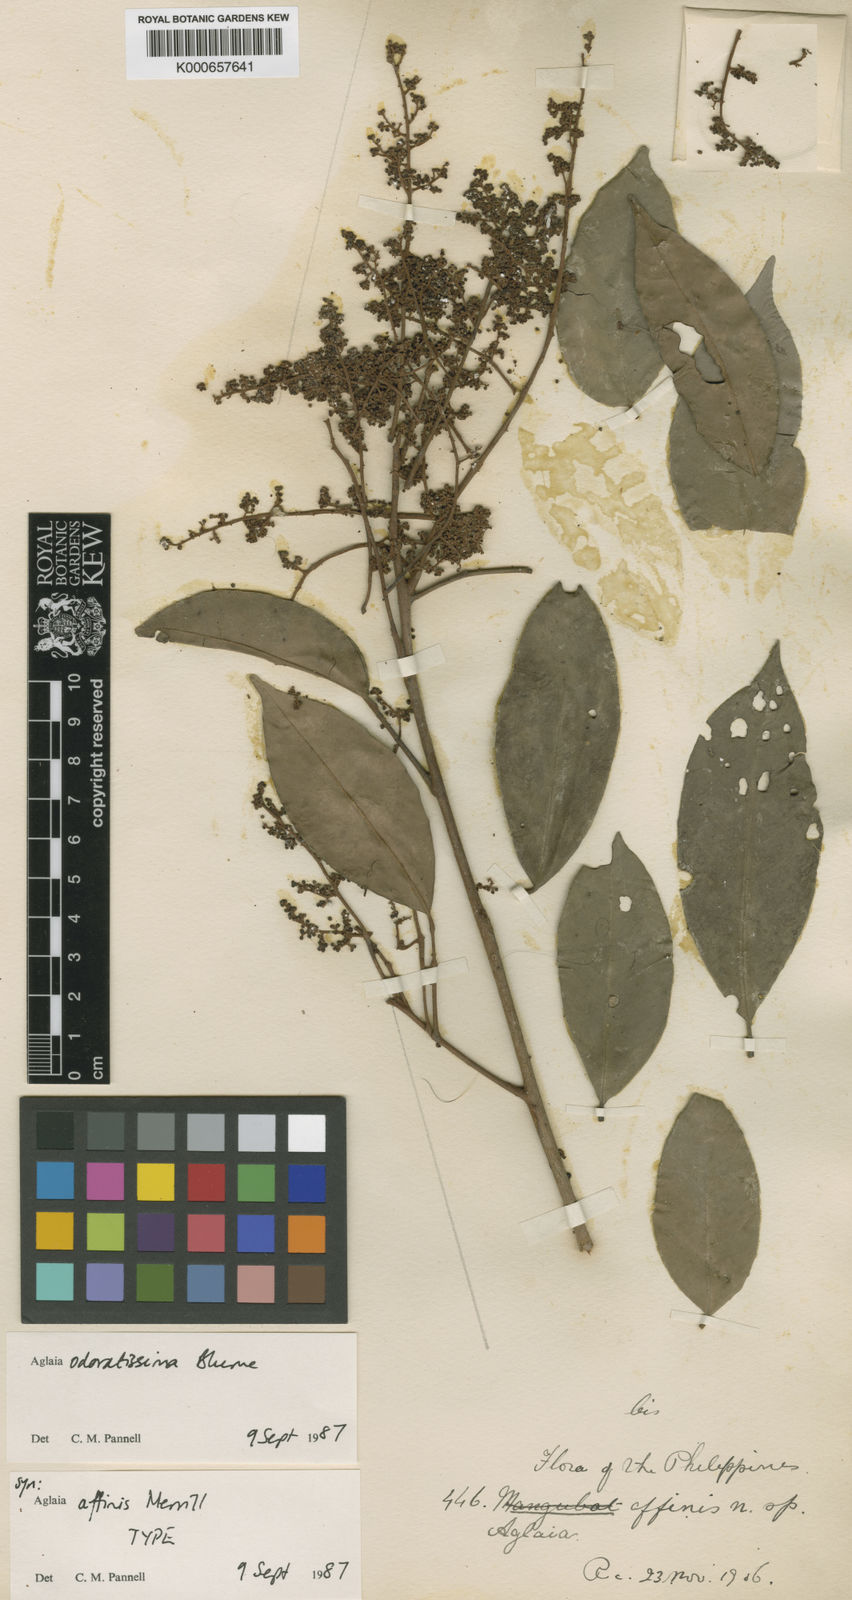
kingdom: Plantae
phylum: Tracheophyta
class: Magnoliopsida
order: Sapindales
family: Meliaceae
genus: Aglaia
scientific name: Aglaia odoratissima
